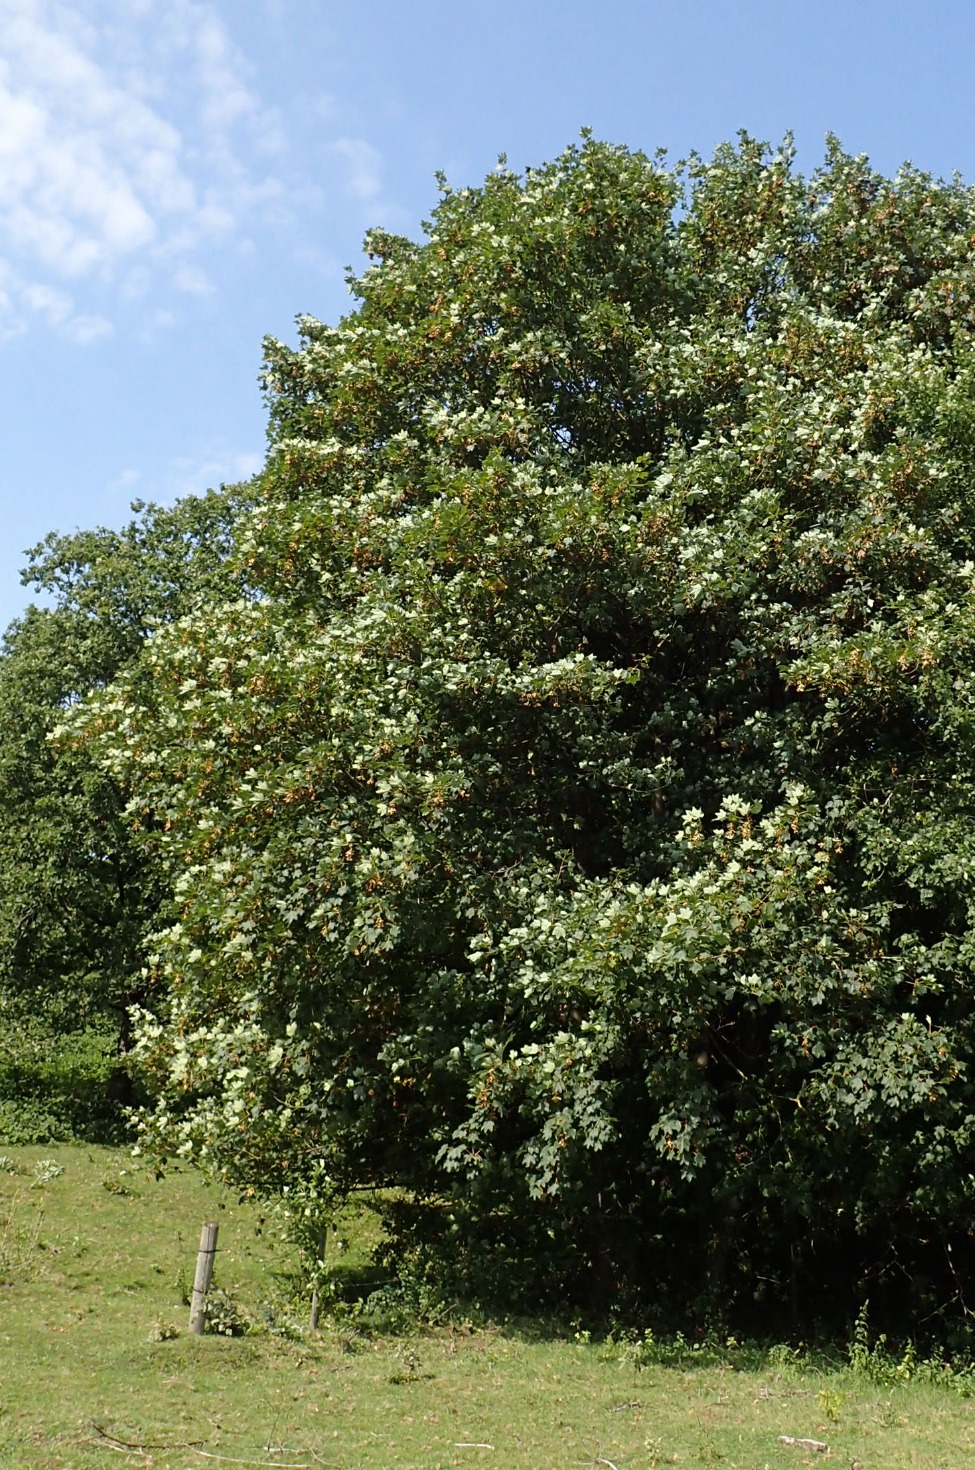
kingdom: Plantae
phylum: Tracheophyta
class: Magnoliopsida
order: Sapindales
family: Sapindaceae
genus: Acer
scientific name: Acer pseudoplatanus
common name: Ahorn
